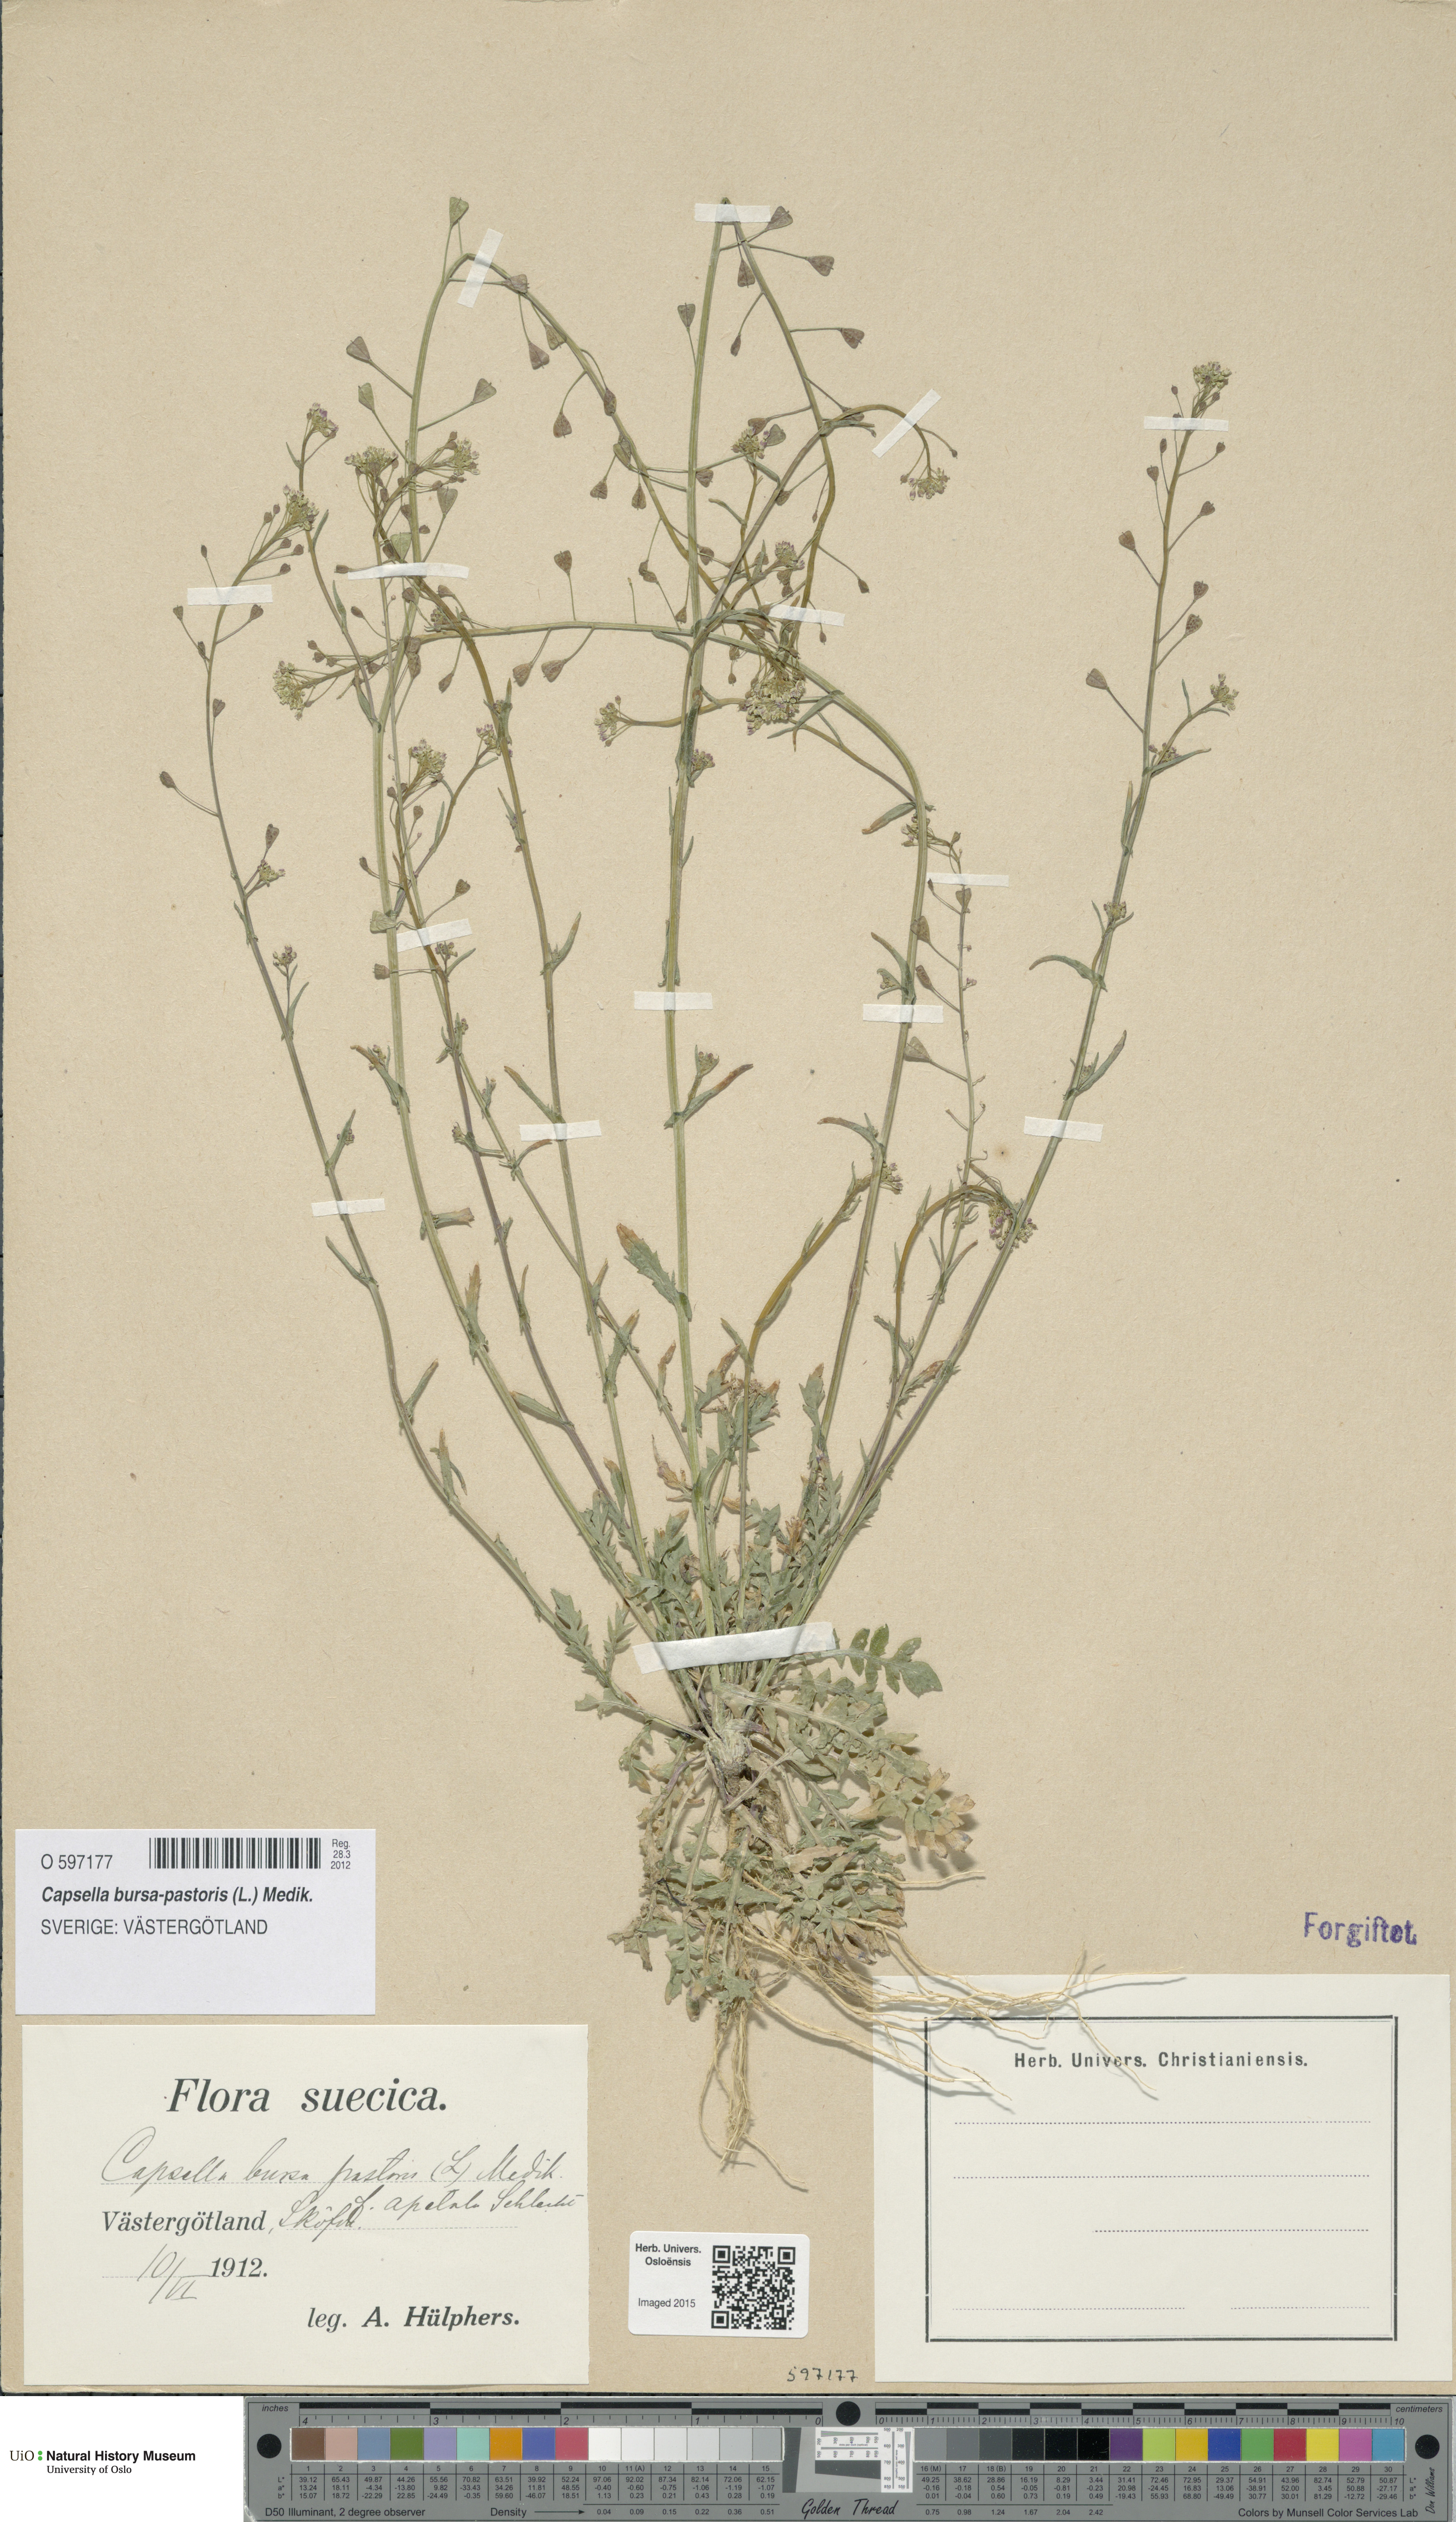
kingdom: Plantae
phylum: Tracheophyta
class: Magnoliopsida
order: Brassicales
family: Brassicaceae
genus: Capsella
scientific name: Capsella bursa-pastoris
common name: Shepherd's purse
